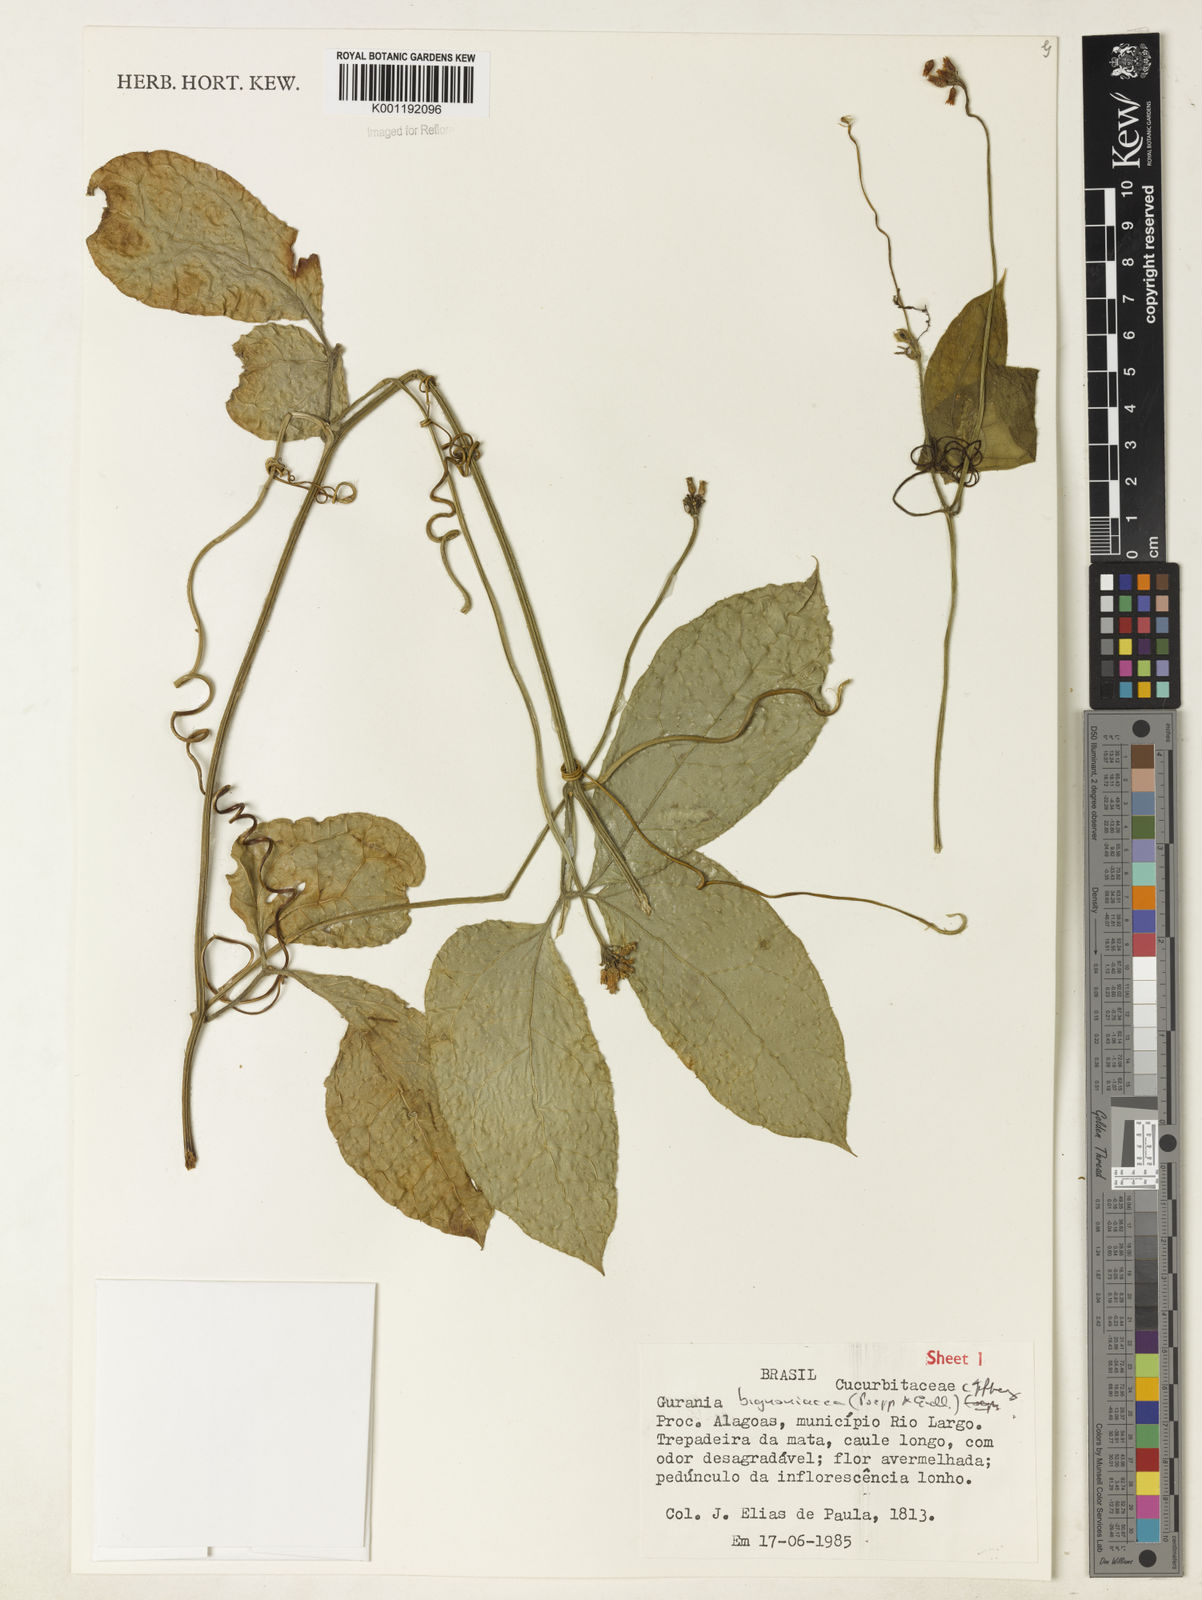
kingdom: Plantae
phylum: Tracheophyta
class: Magnoliopsida
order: Cucurbitales
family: Cucurbitaceae
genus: Gurania
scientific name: Gurania bignoniacea
